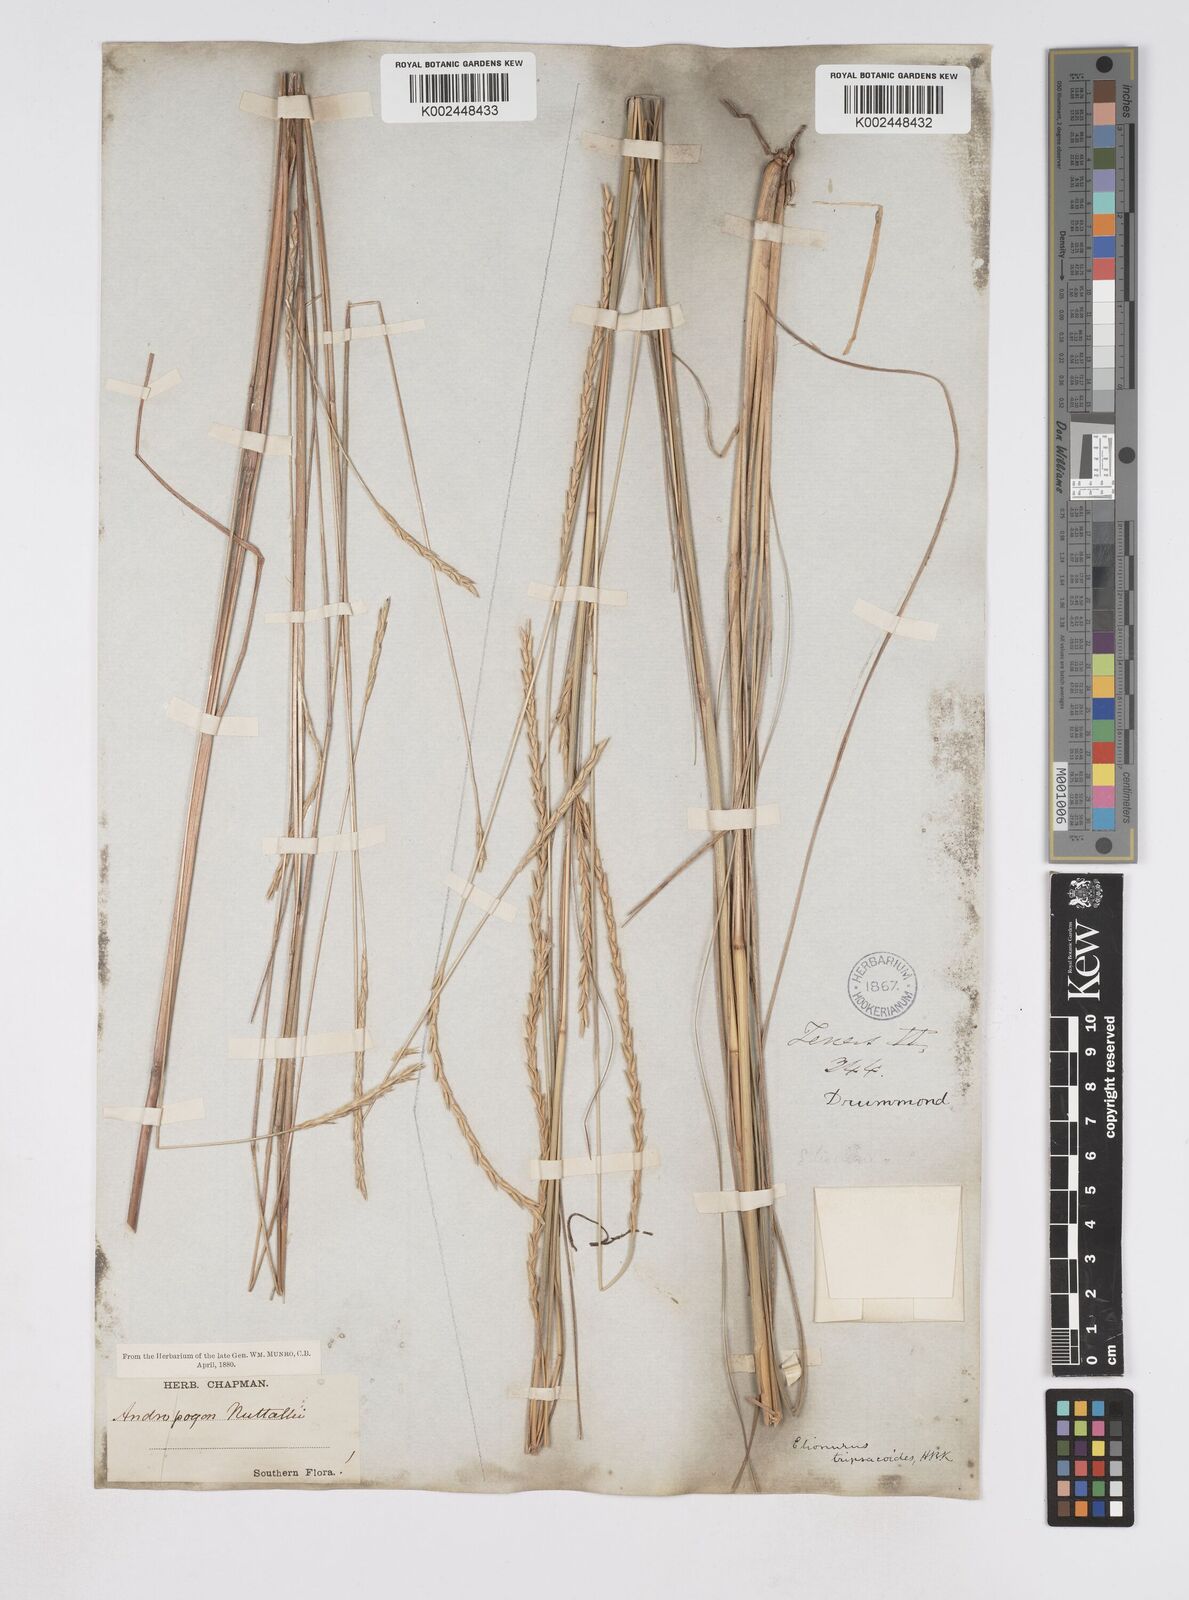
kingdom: Plantae
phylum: Tracheophyta
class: Liliopsida
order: Poales
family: Poaceae
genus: Elionurus
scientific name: Elionurus tripsacoides
